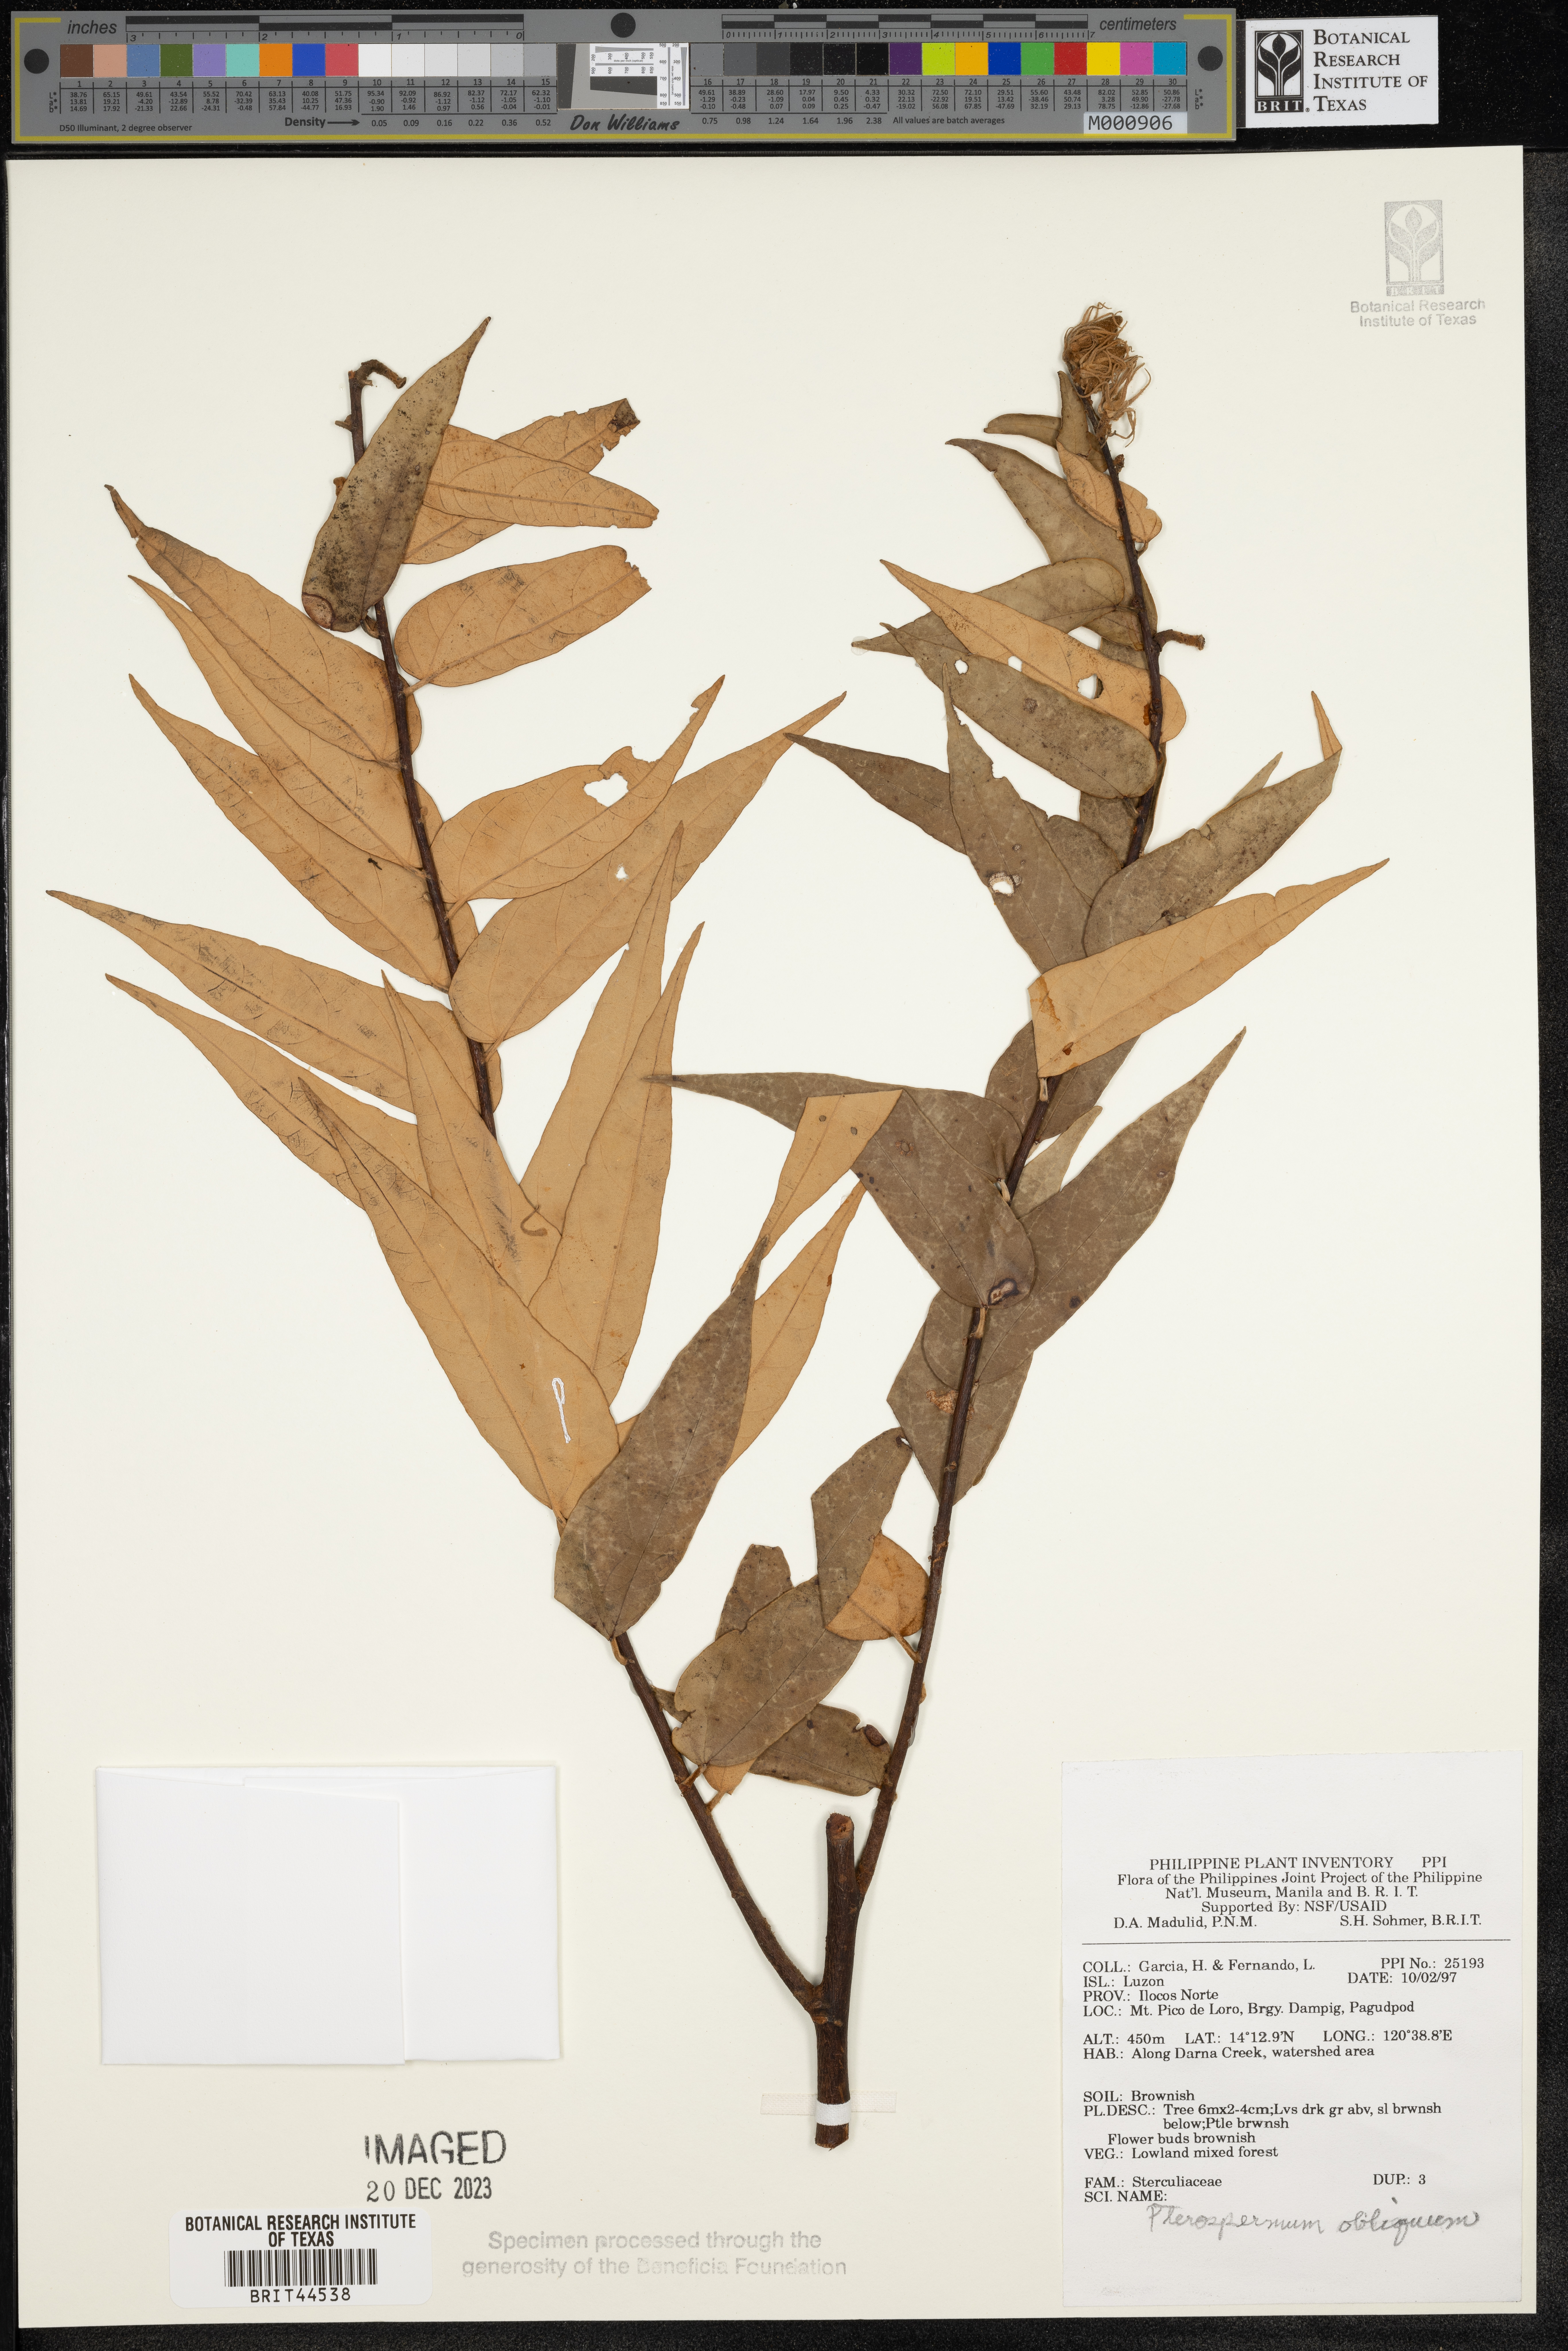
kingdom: Plantae
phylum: Tracheophyta
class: Magnoliopsida
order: Malvales
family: Malvaceae
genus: Pterospermum
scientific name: Pterospermum obliquum
